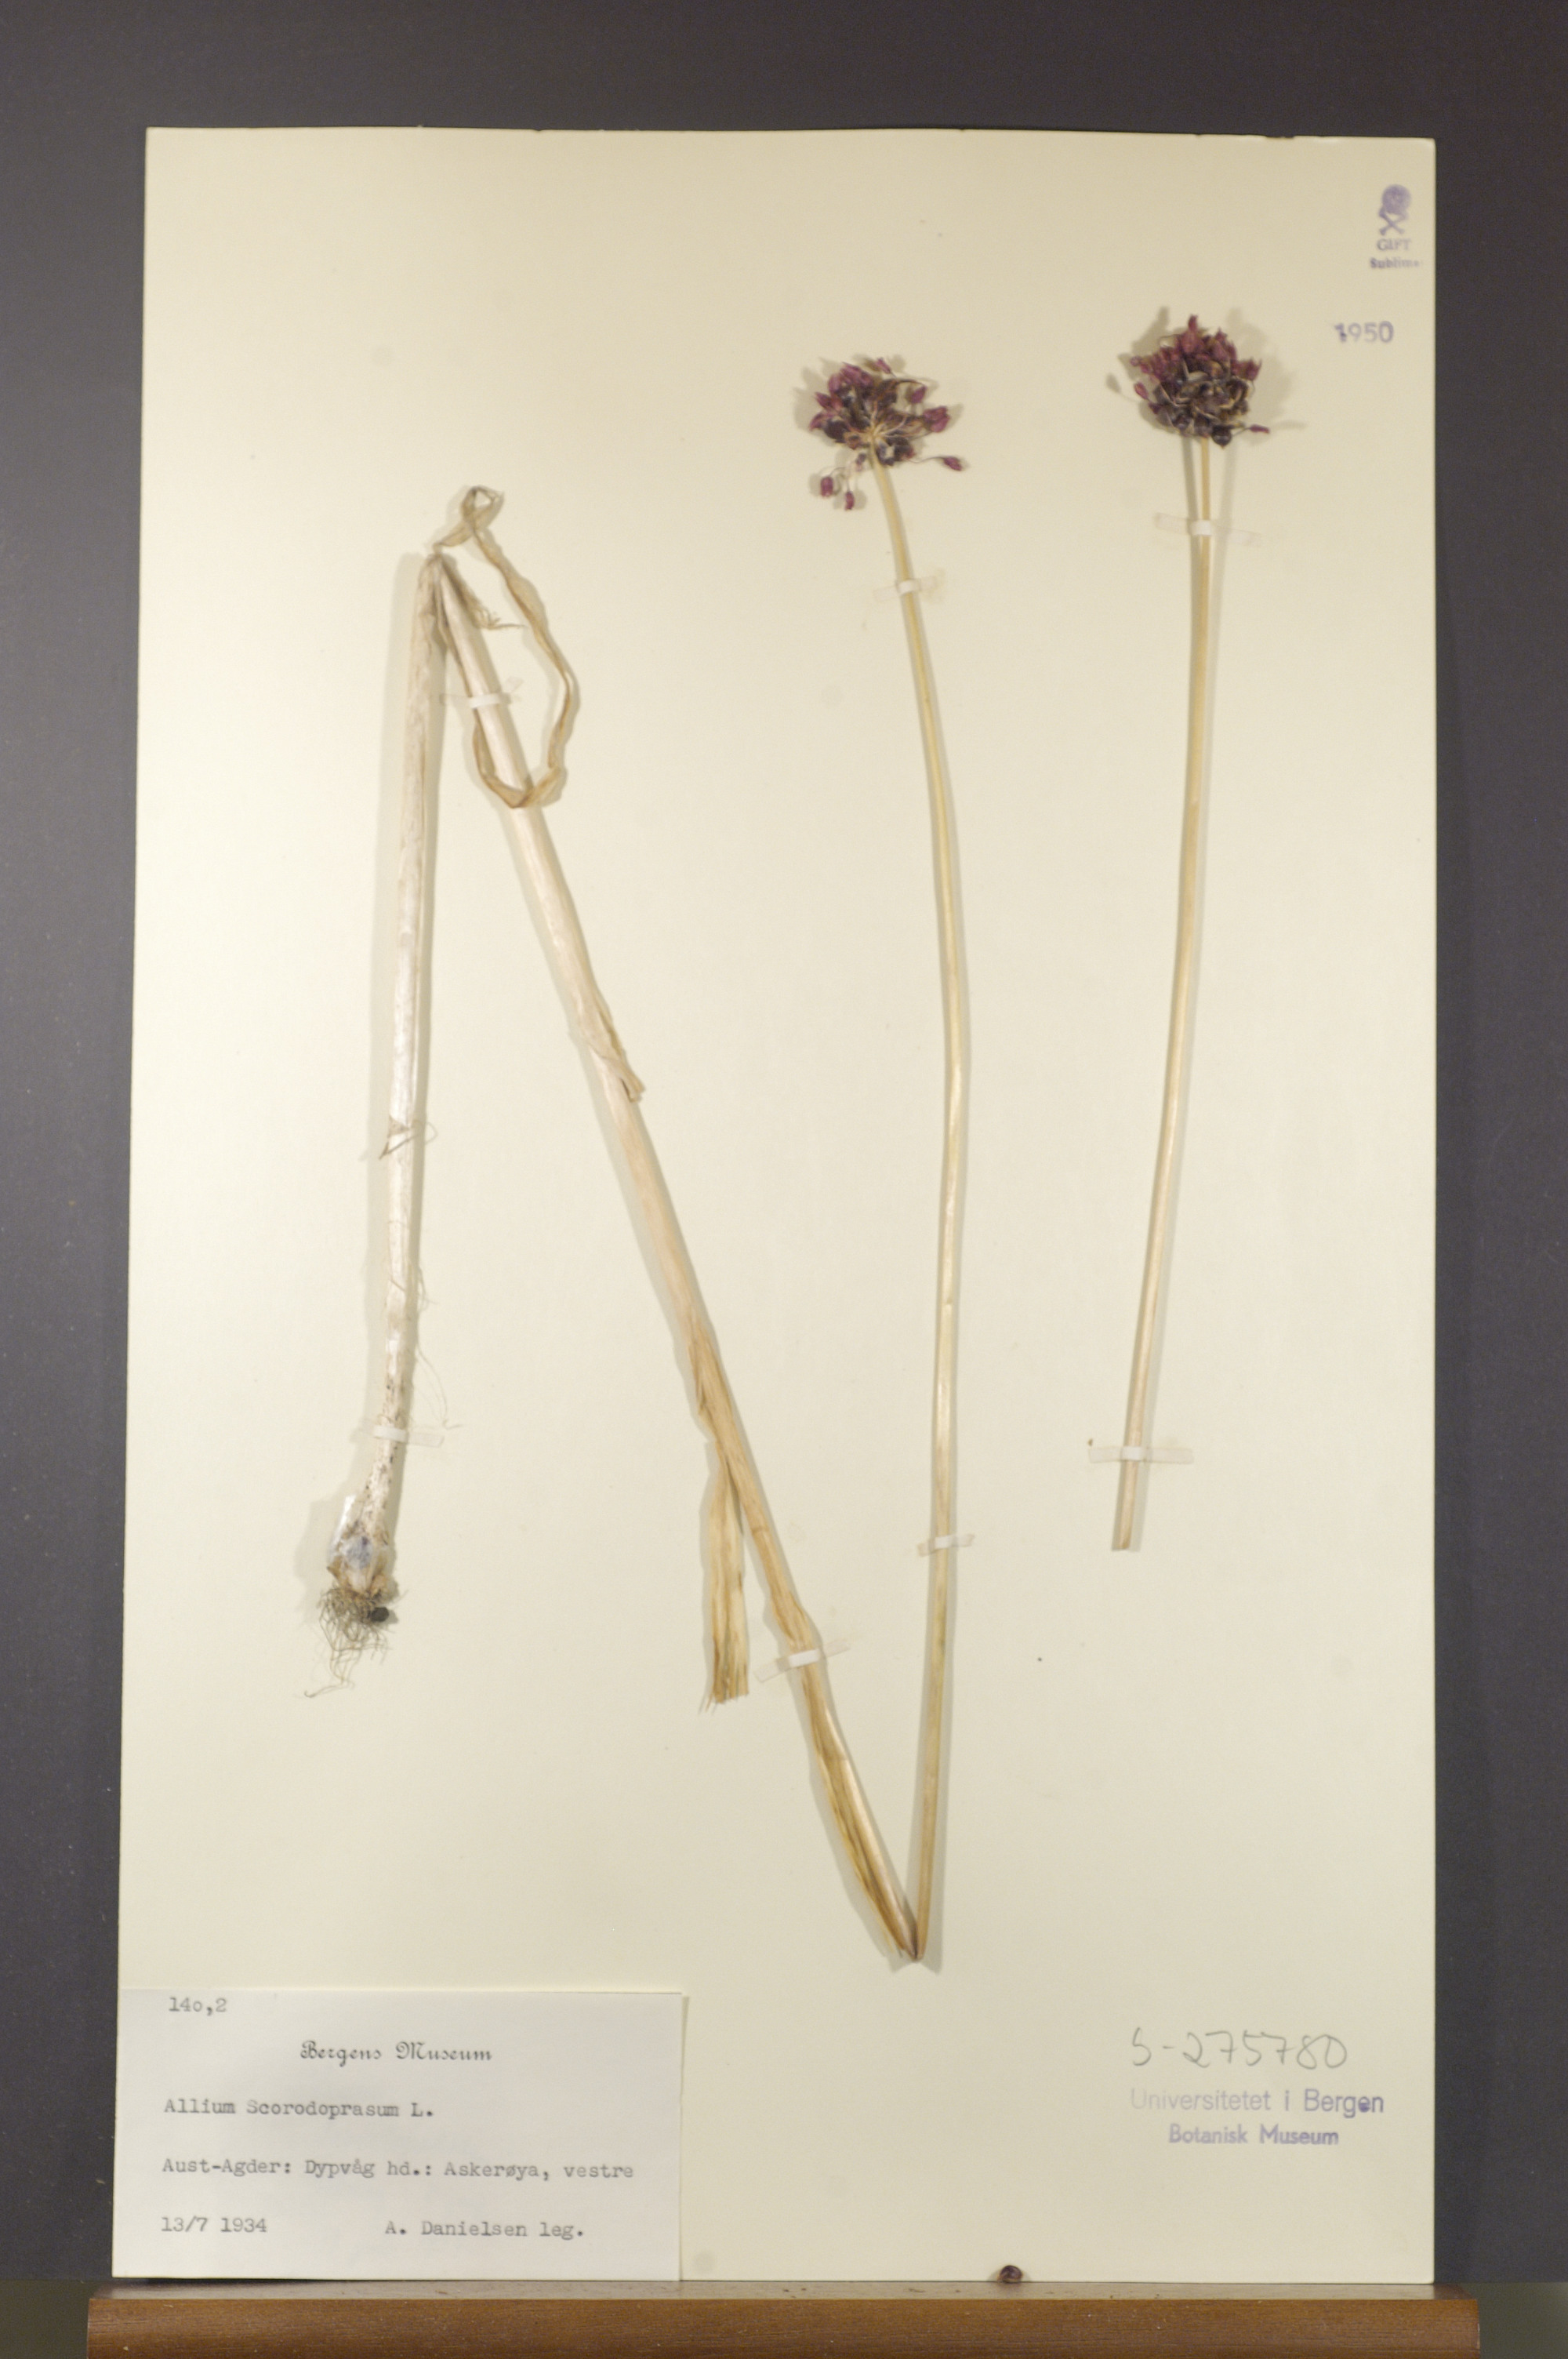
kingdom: Plantae
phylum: Tracheophyta
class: Liliopsida
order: Asparagales
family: Amaryllidaceae
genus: Allium
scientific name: Allium scorodoprasum
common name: Sand leek
